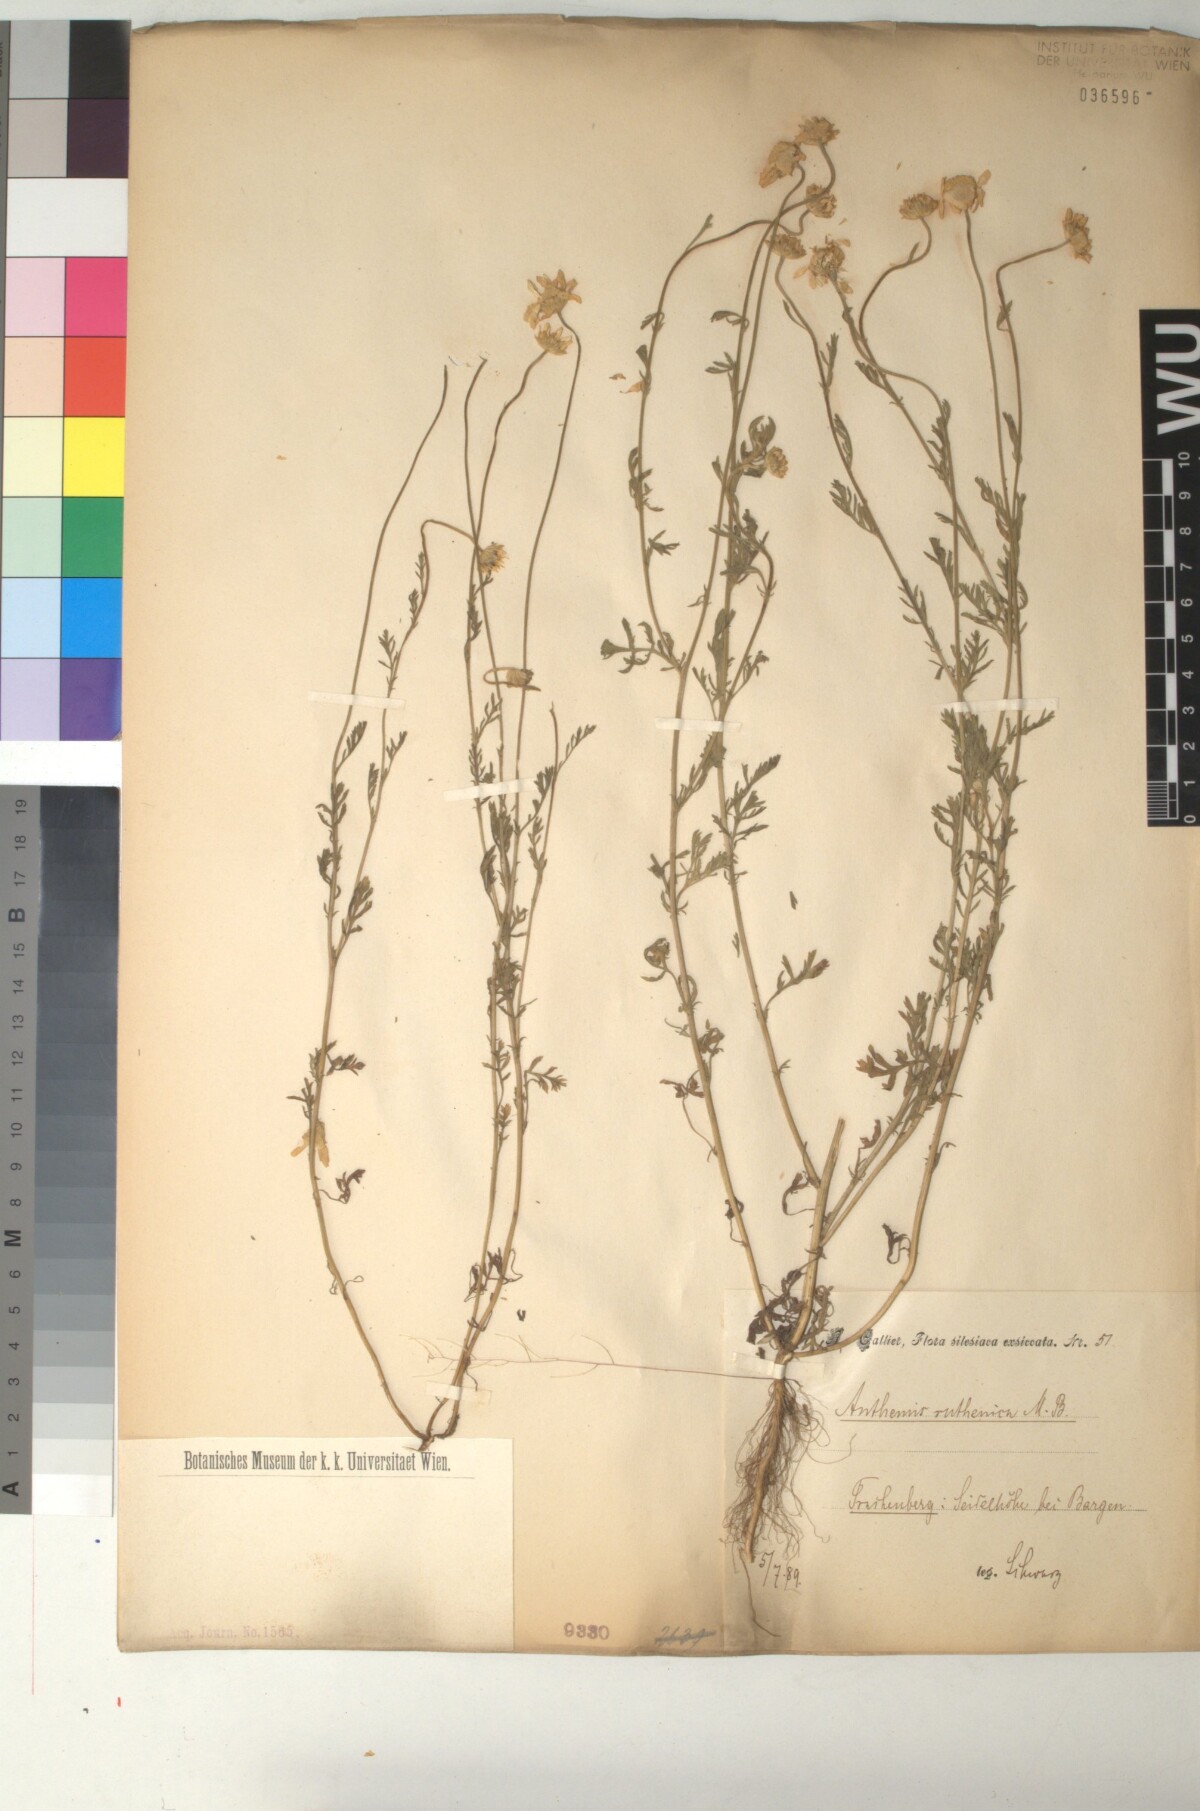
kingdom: Plantae
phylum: Tracheophyta
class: Magnoliopsida
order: Asterales
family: Asteraceae
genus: Anthemis
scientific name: Anthemis ruthenica
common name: Eastern chamomile
